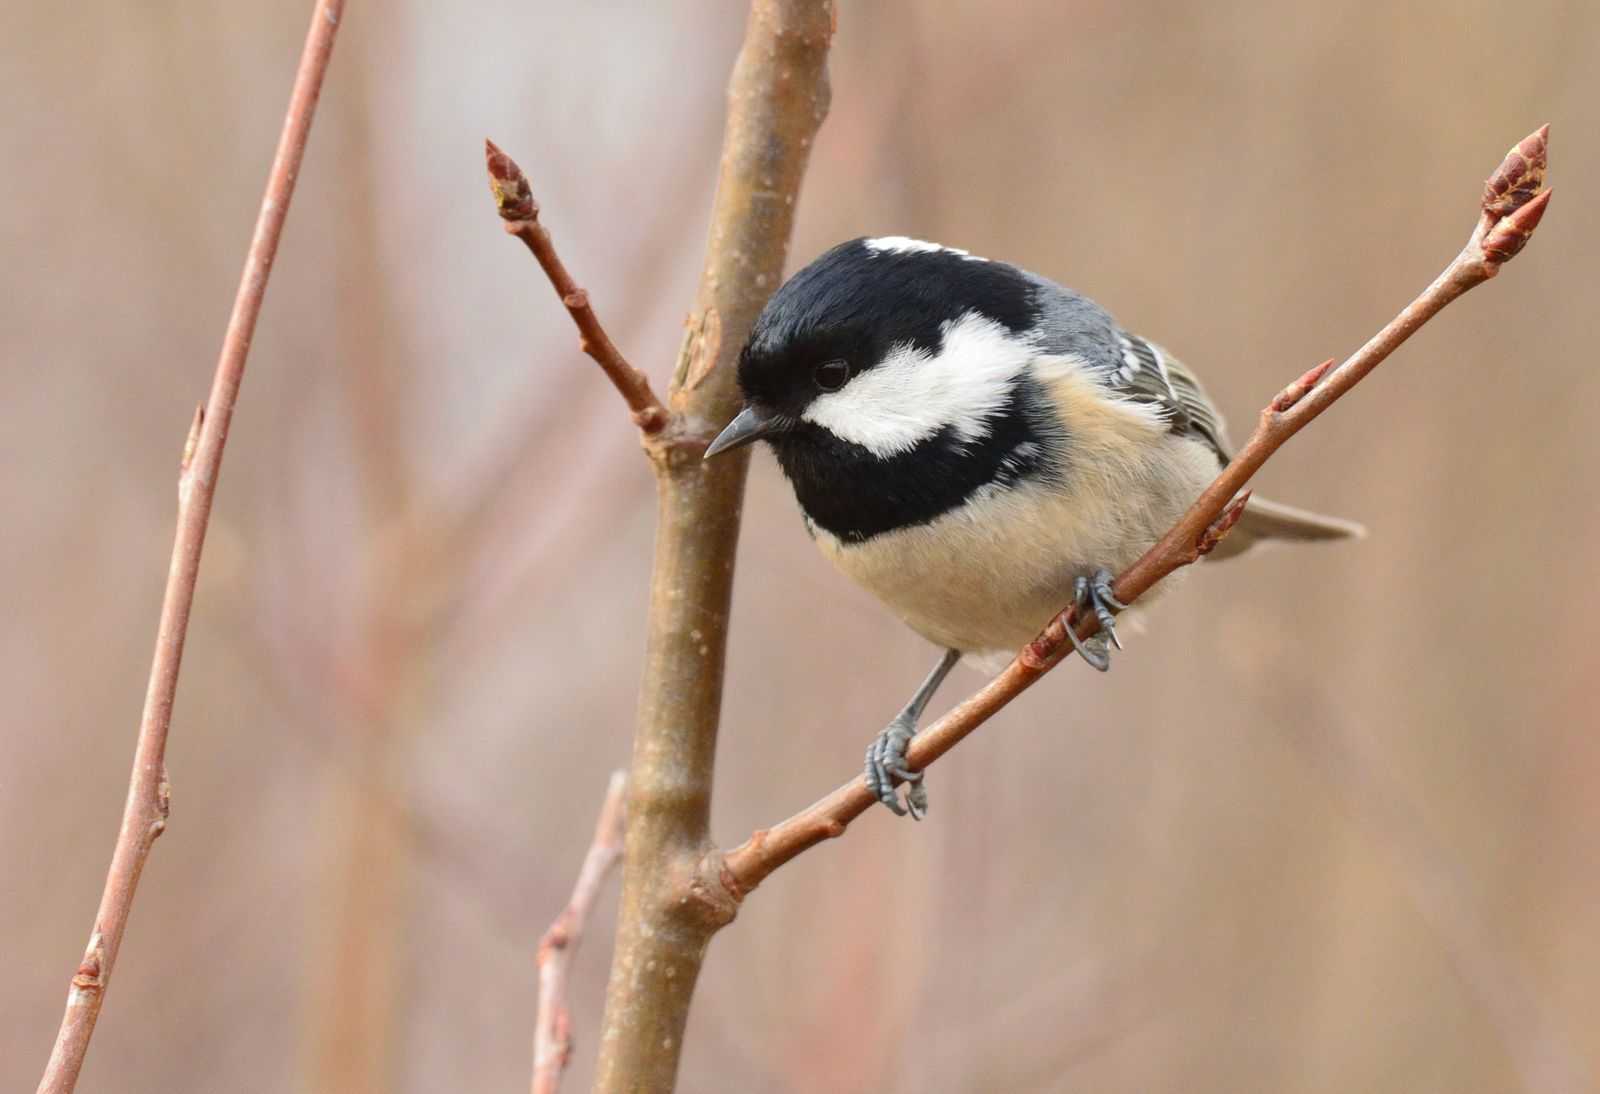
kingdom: Animalia
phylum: Chordata
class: Aves
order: Passeriformes
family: Paridae
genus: Periparus
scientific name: Periparus ater
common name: Coal tit
